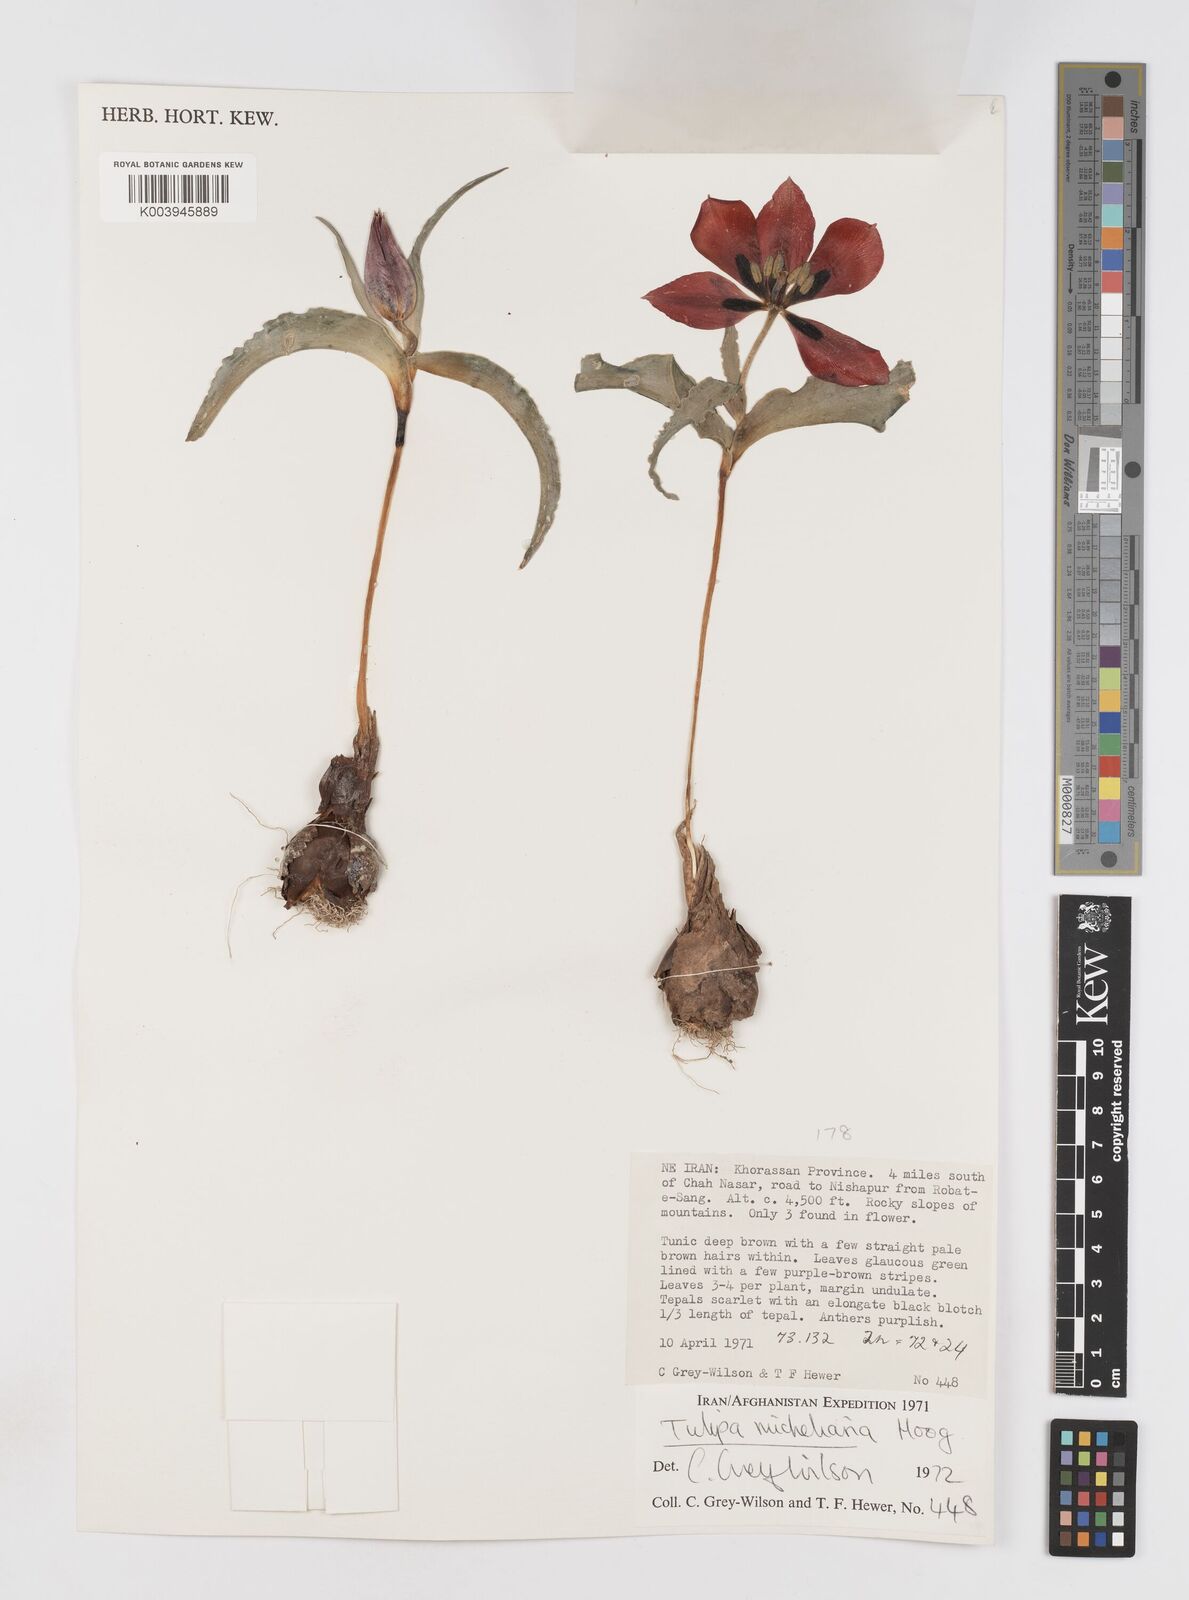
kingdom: Plantae
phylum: Tracheophyta
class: Liliopsida
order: Liliales
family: Liliaceae
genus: Tulipa
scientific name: Tulipa undulatifolia
